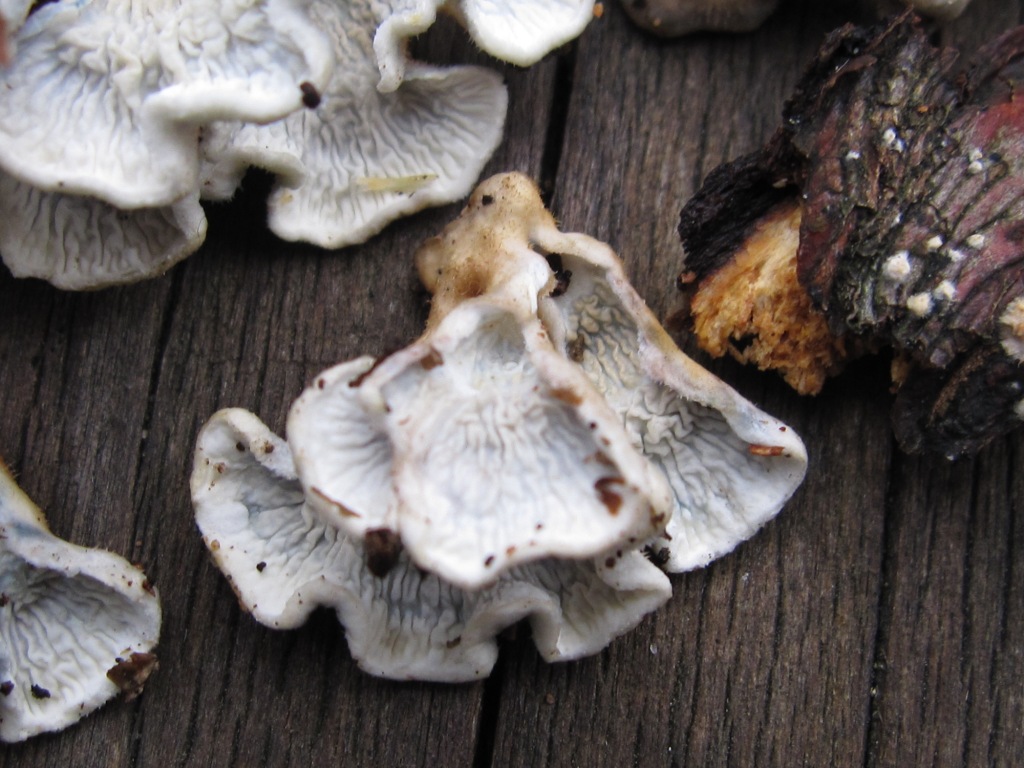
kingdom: Fungi
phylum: Basidiomycota
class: Agaricomycetes
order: Amylocorticiales
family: Amylocorticiaceae
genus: Plicaturopsis
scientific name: Plicaturopsis crispa
